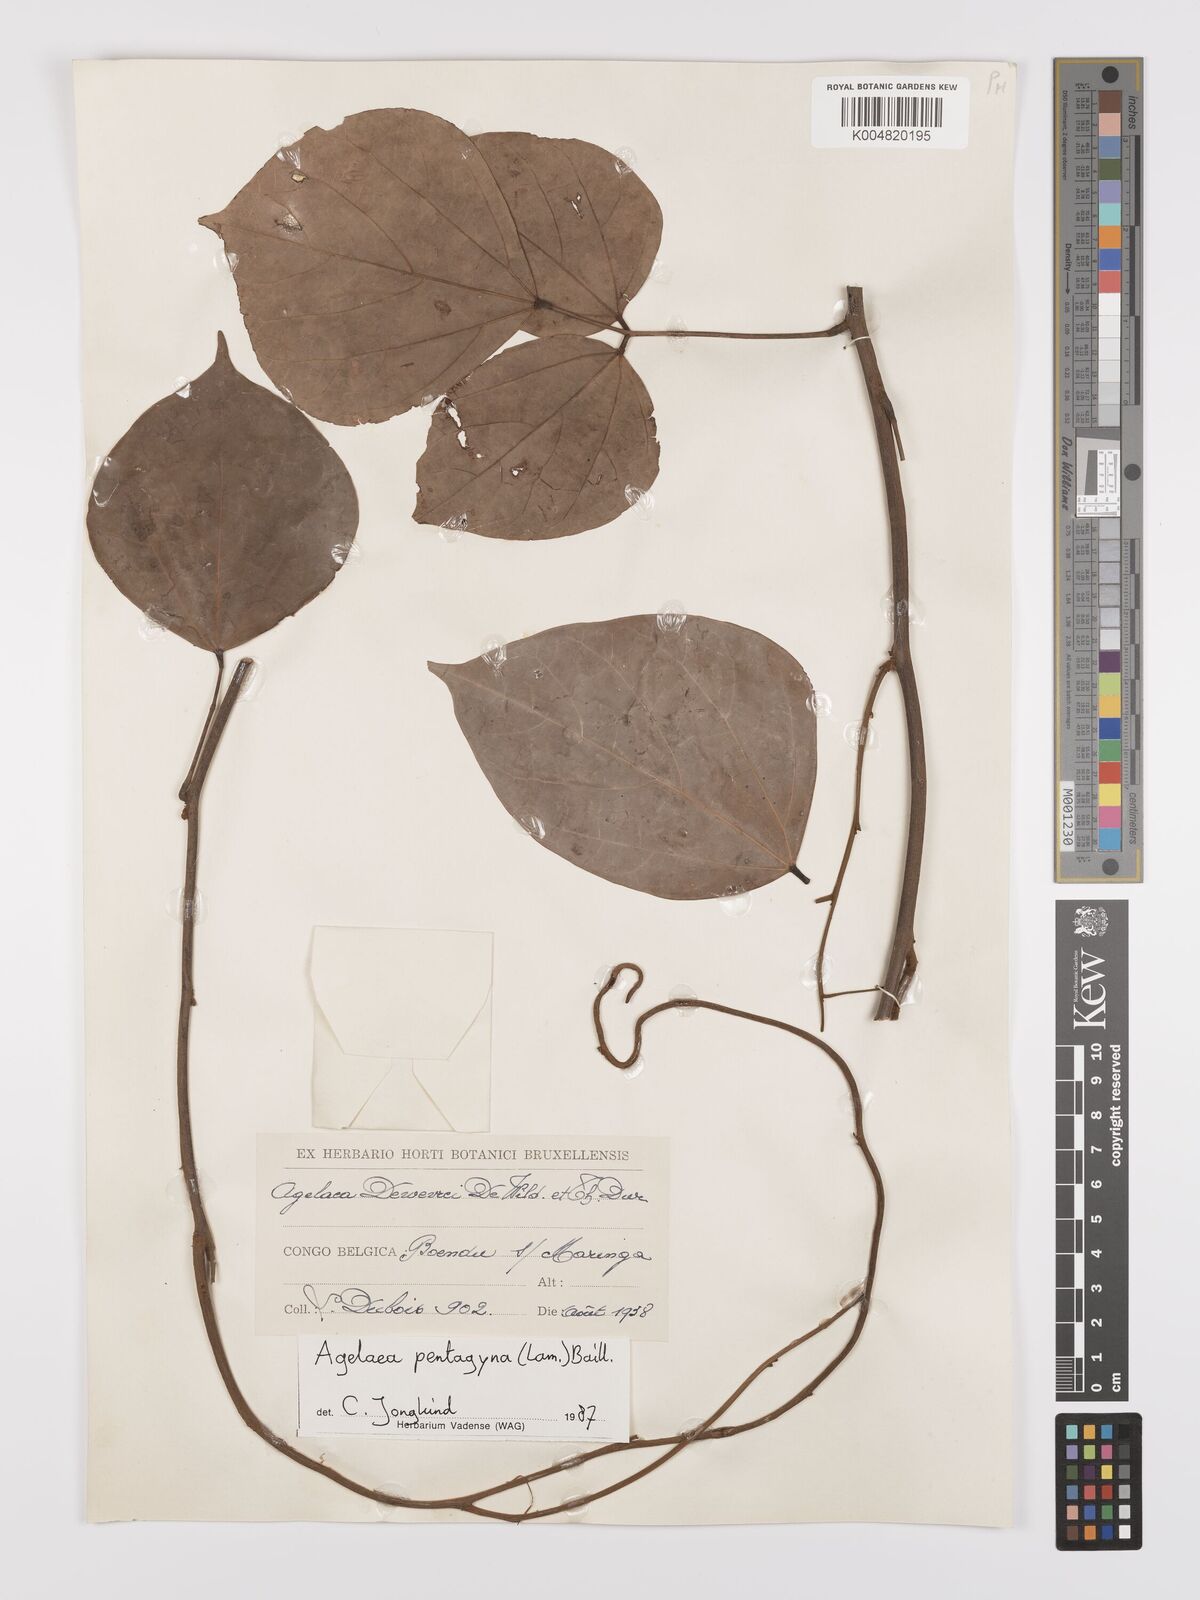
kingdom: Plantae
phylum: Tracheophyta
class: Magnoliopsida
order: Oxalidales
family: Connaraceae
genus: Agelaea
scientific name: Agelaea pentagyna
